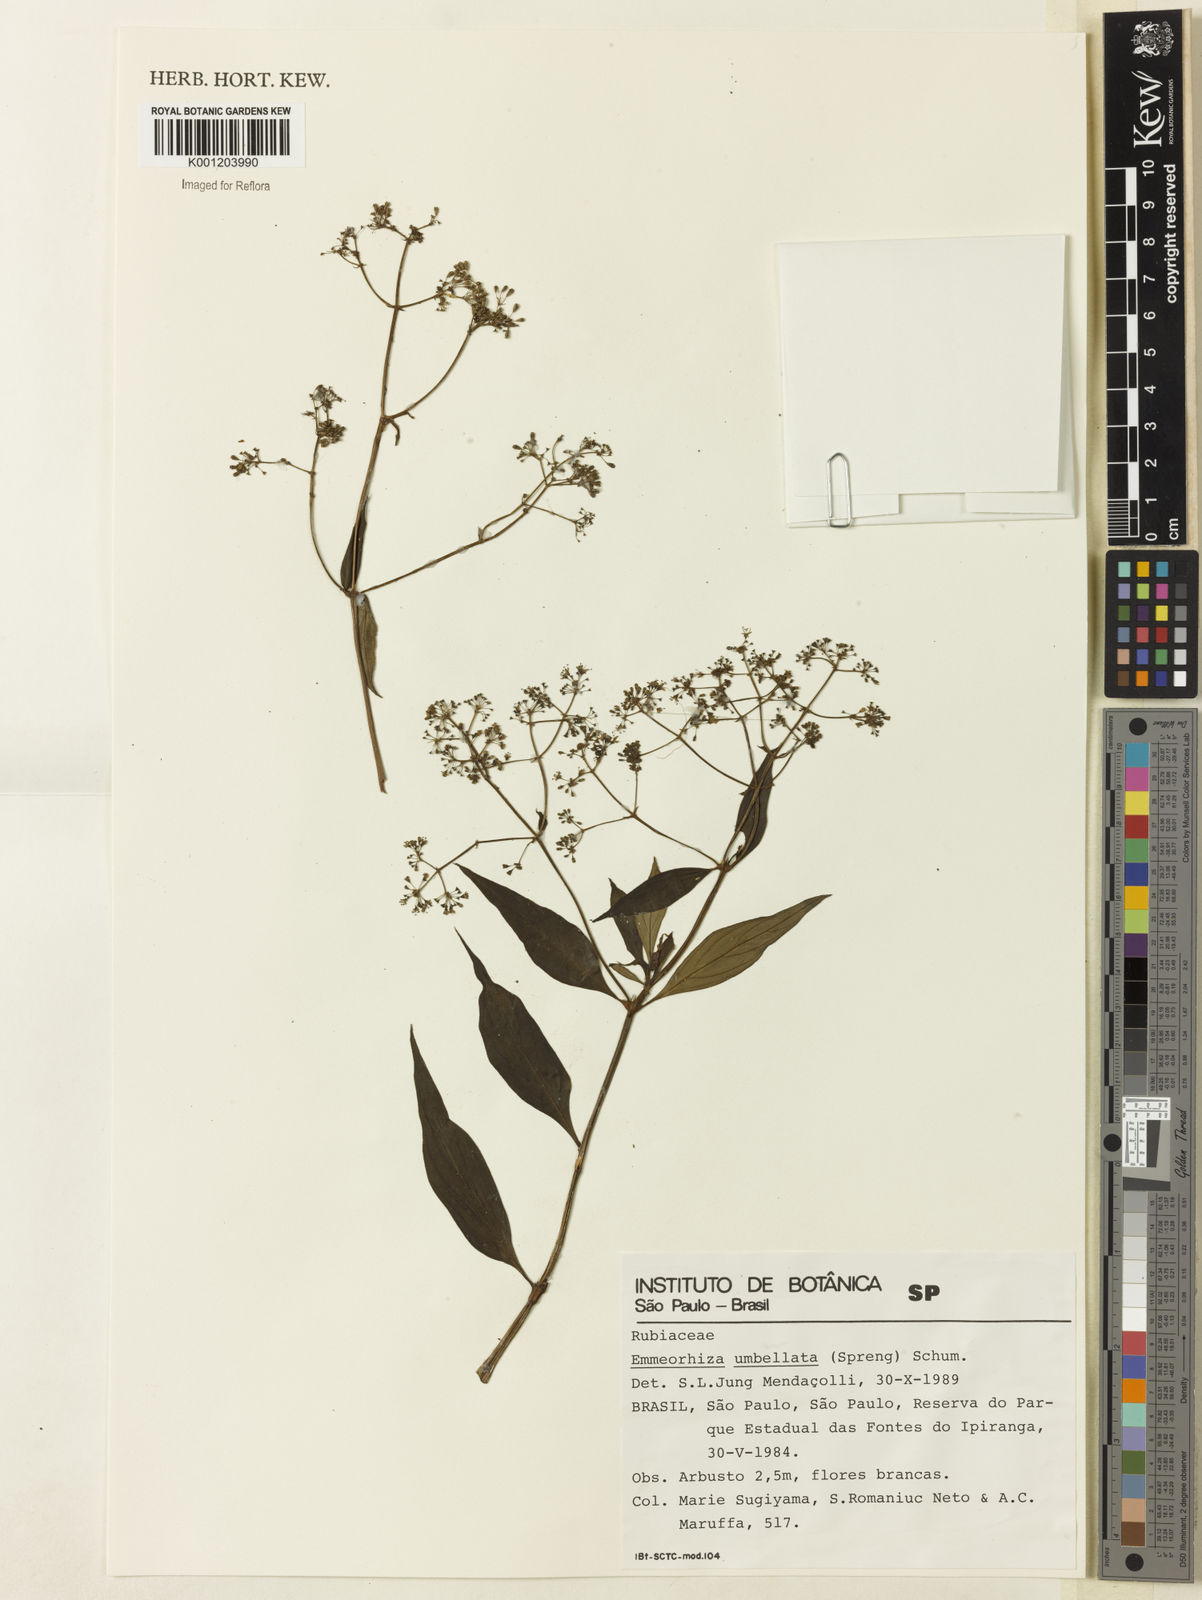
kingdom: Plantae
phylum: Tracheophyta
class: Magnoliopsida
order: Gentianales
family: Rubiaceae
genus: Emmeorhiza
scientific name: Emmeorhiza umbellata
